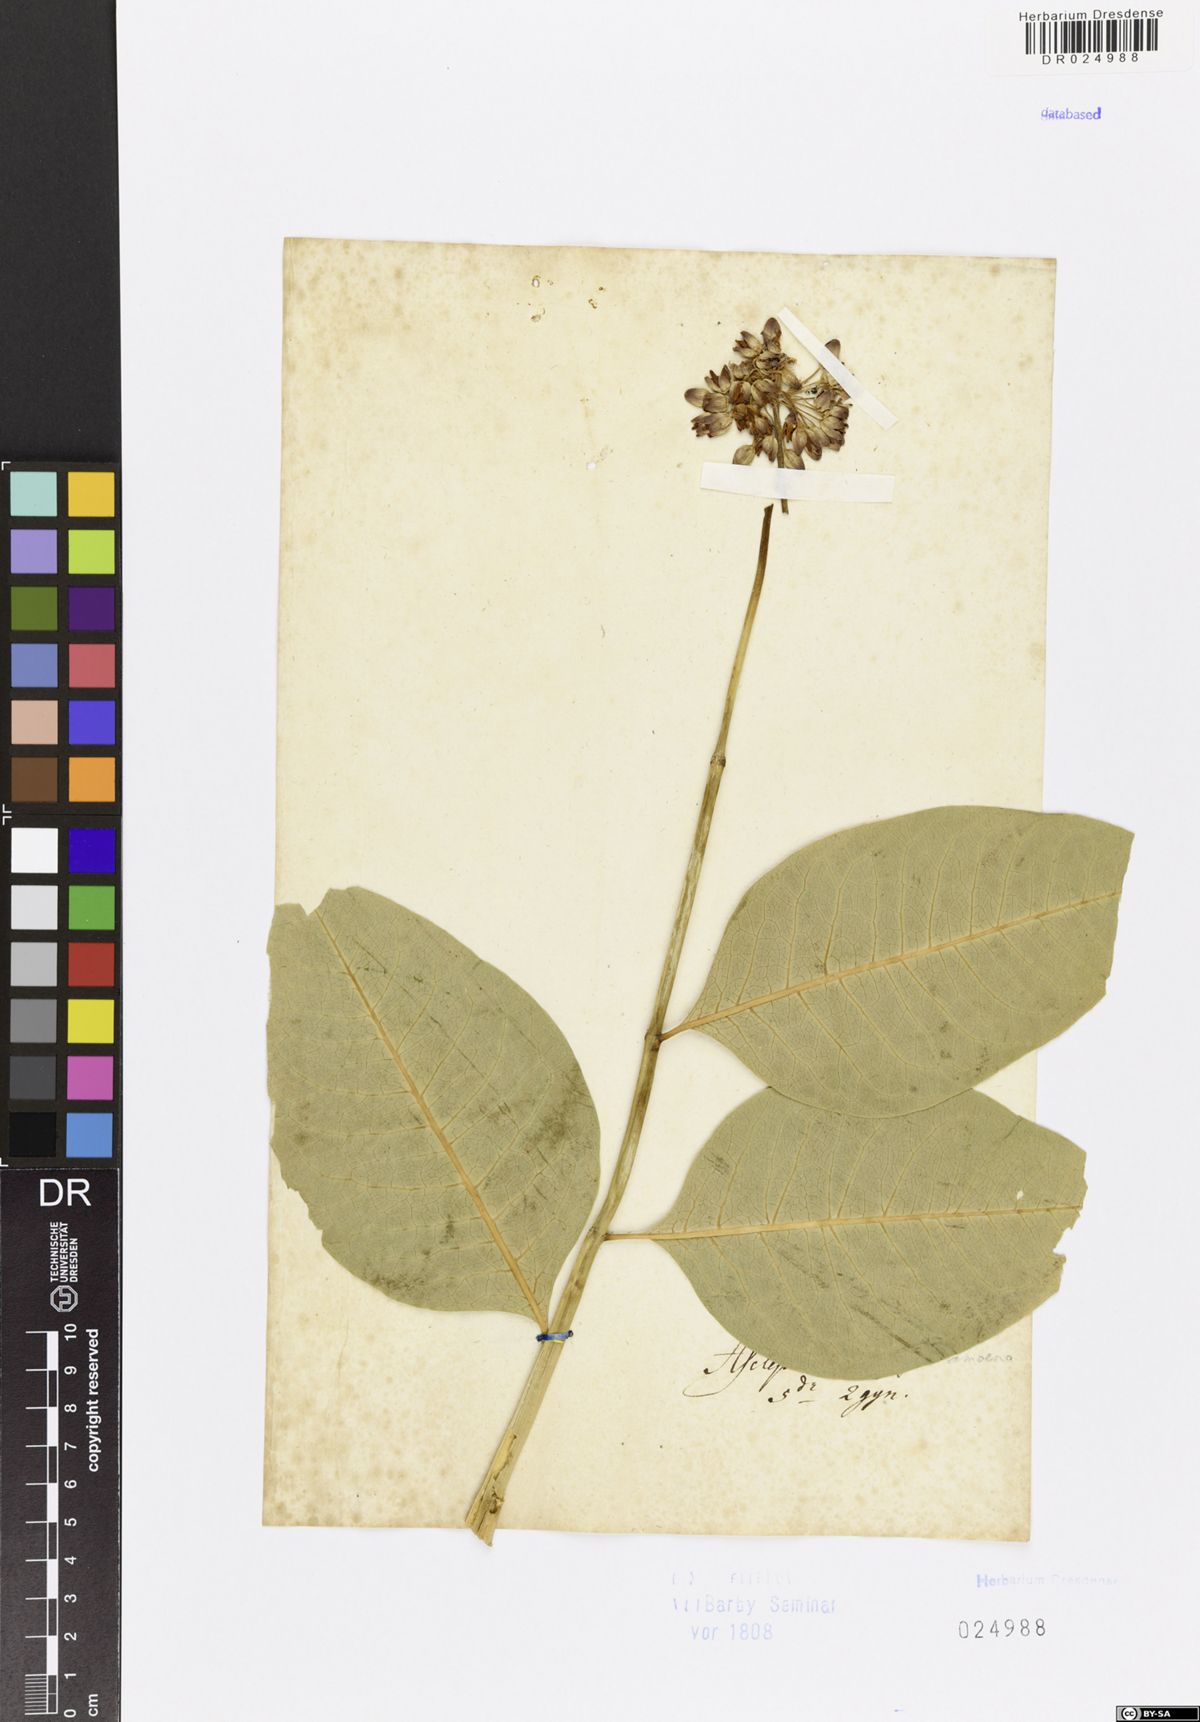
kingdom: Plantae
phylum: Tracheophyta
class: Magnoliopsida
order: Gentianales
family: Apocynaceae
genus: Asclepias
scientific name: Asclepias incarnata
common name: Swamp milkweed
